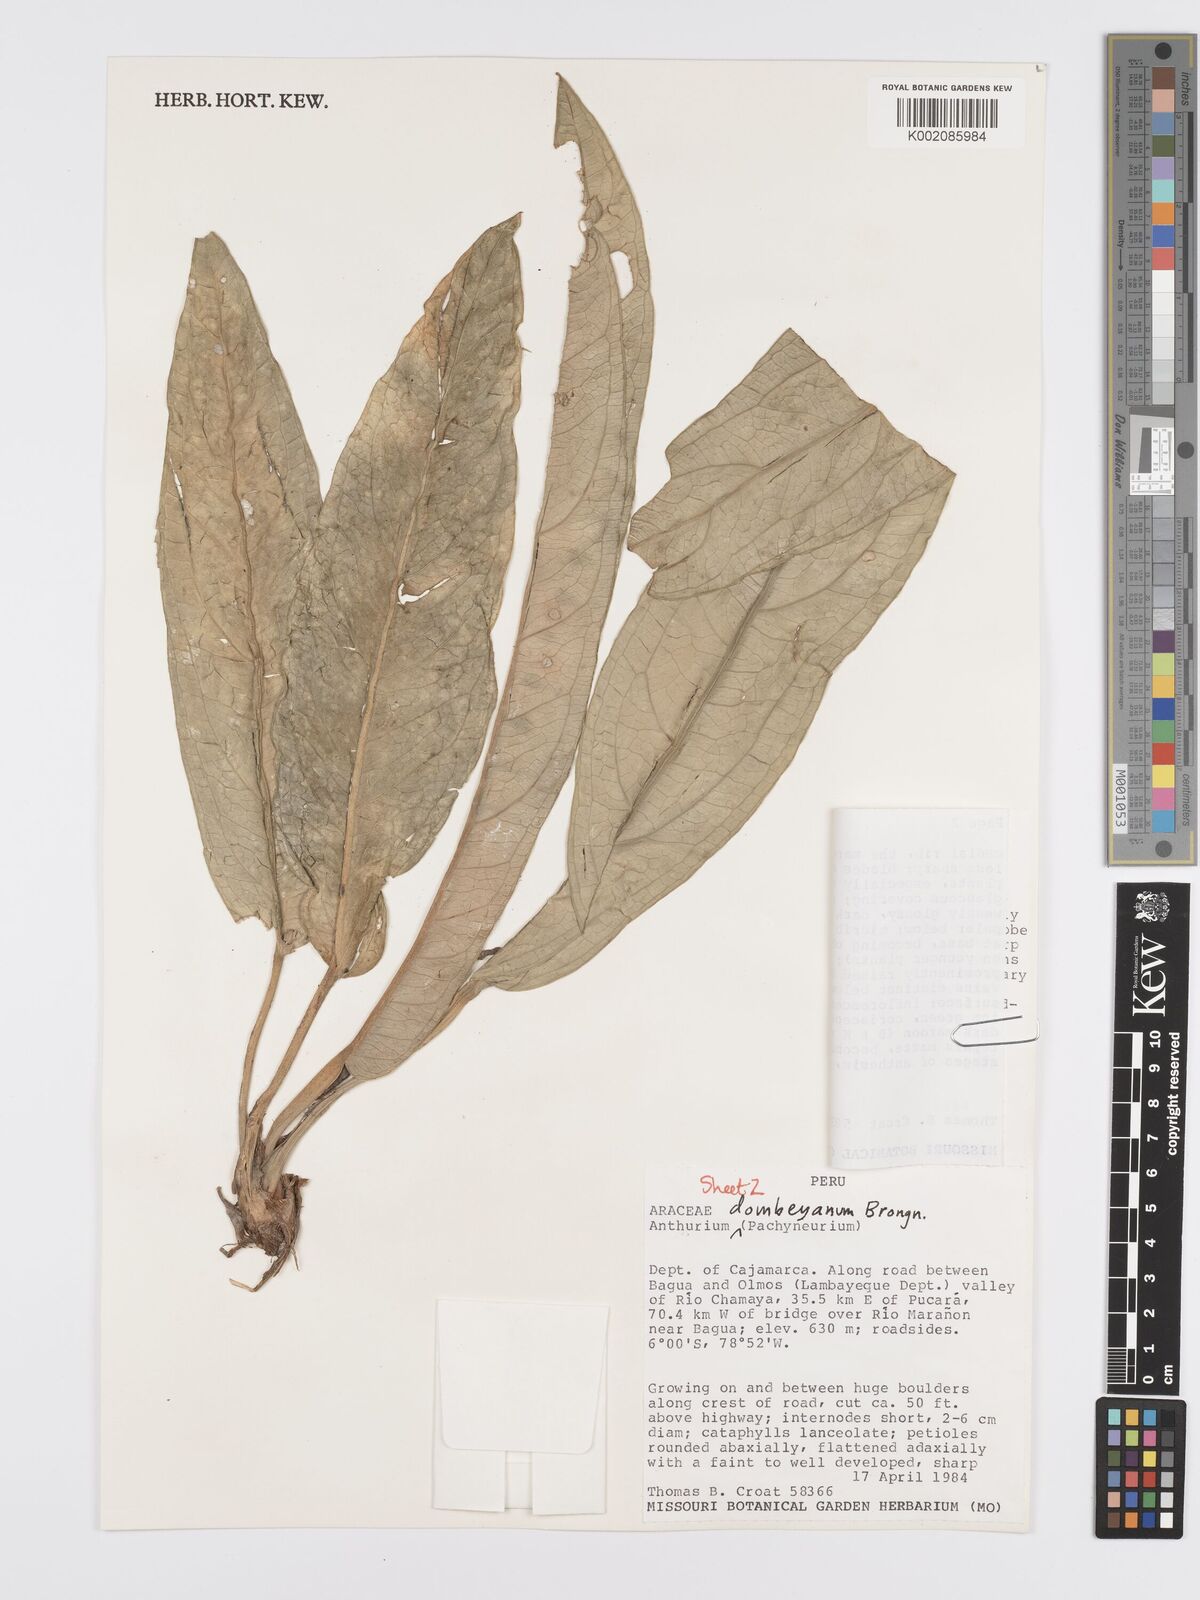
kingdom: Plantae
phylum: Tracheophyta
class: Liliopsida
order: Alismatales
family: Araceae
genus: Anthurium
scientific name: Anthurium dombeyanum
